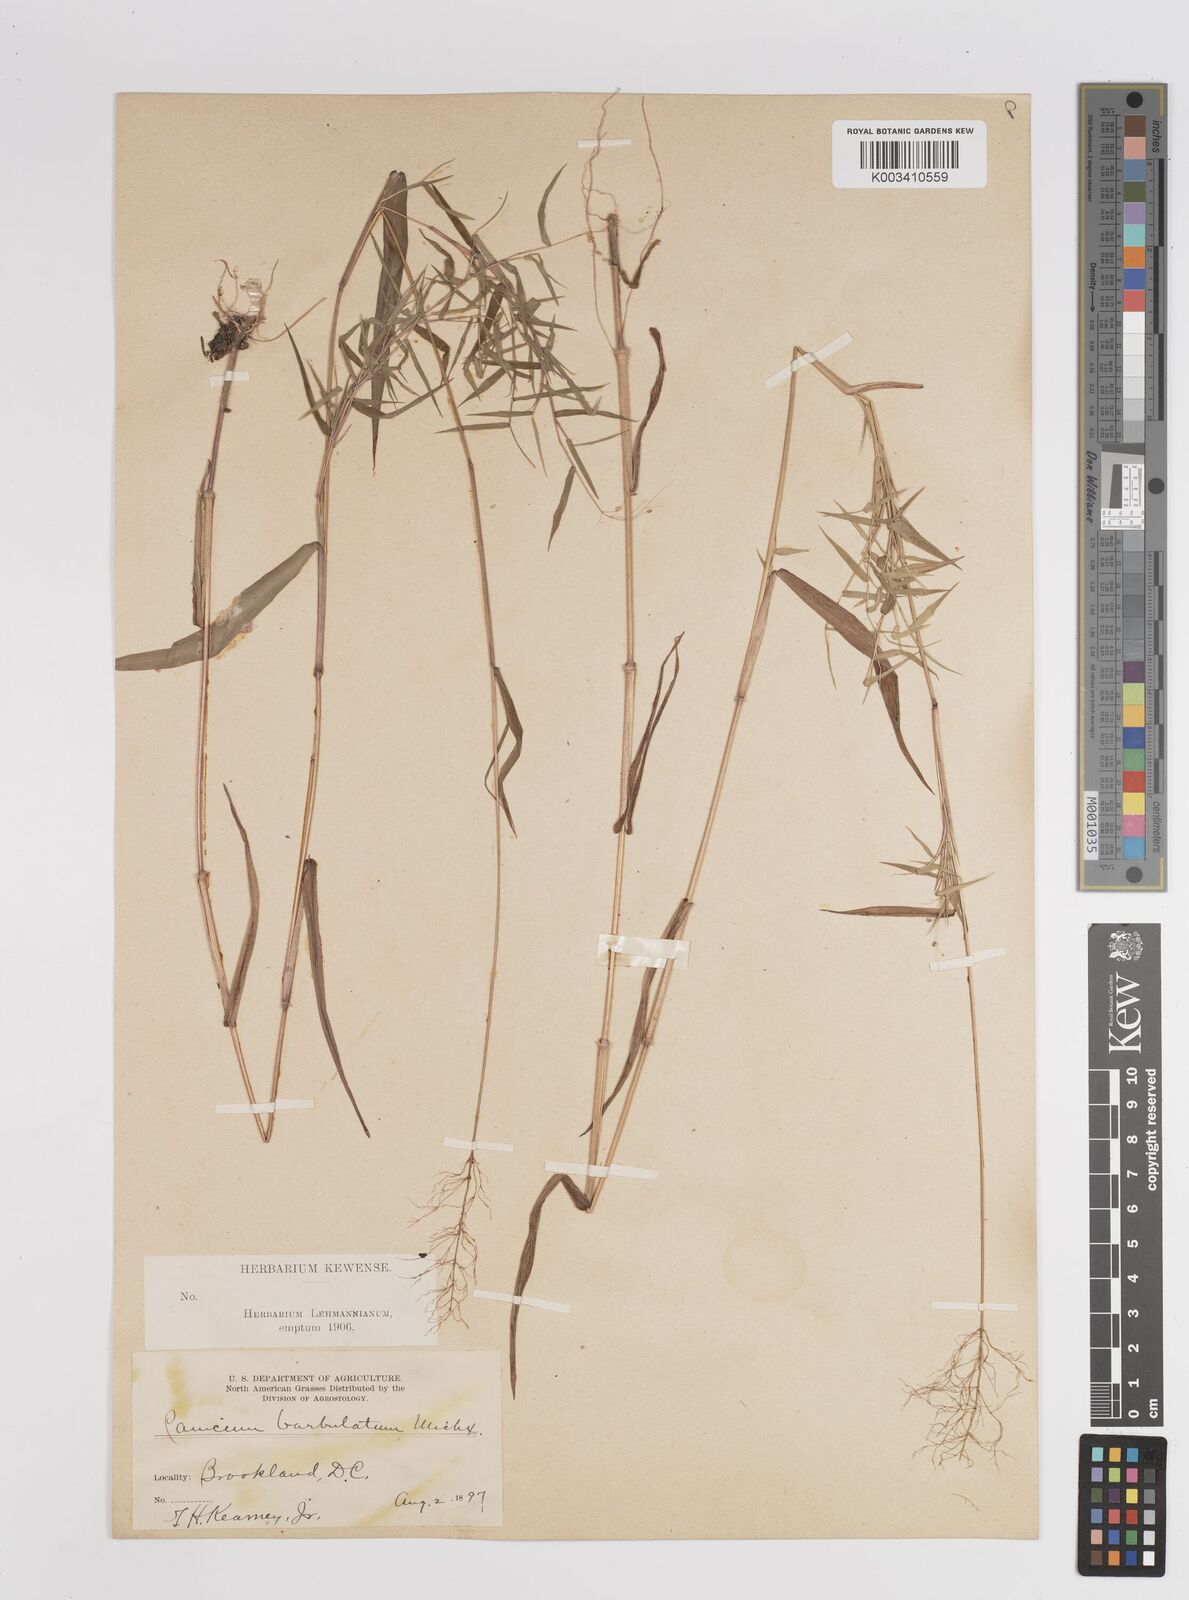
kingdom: Plantae
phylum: Tracheophyta
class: Liliopsida
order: Poales
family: Poaceae
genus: Dichanthelium
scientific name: Dichanthelium dichotomum
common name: Cypress panicgrass
